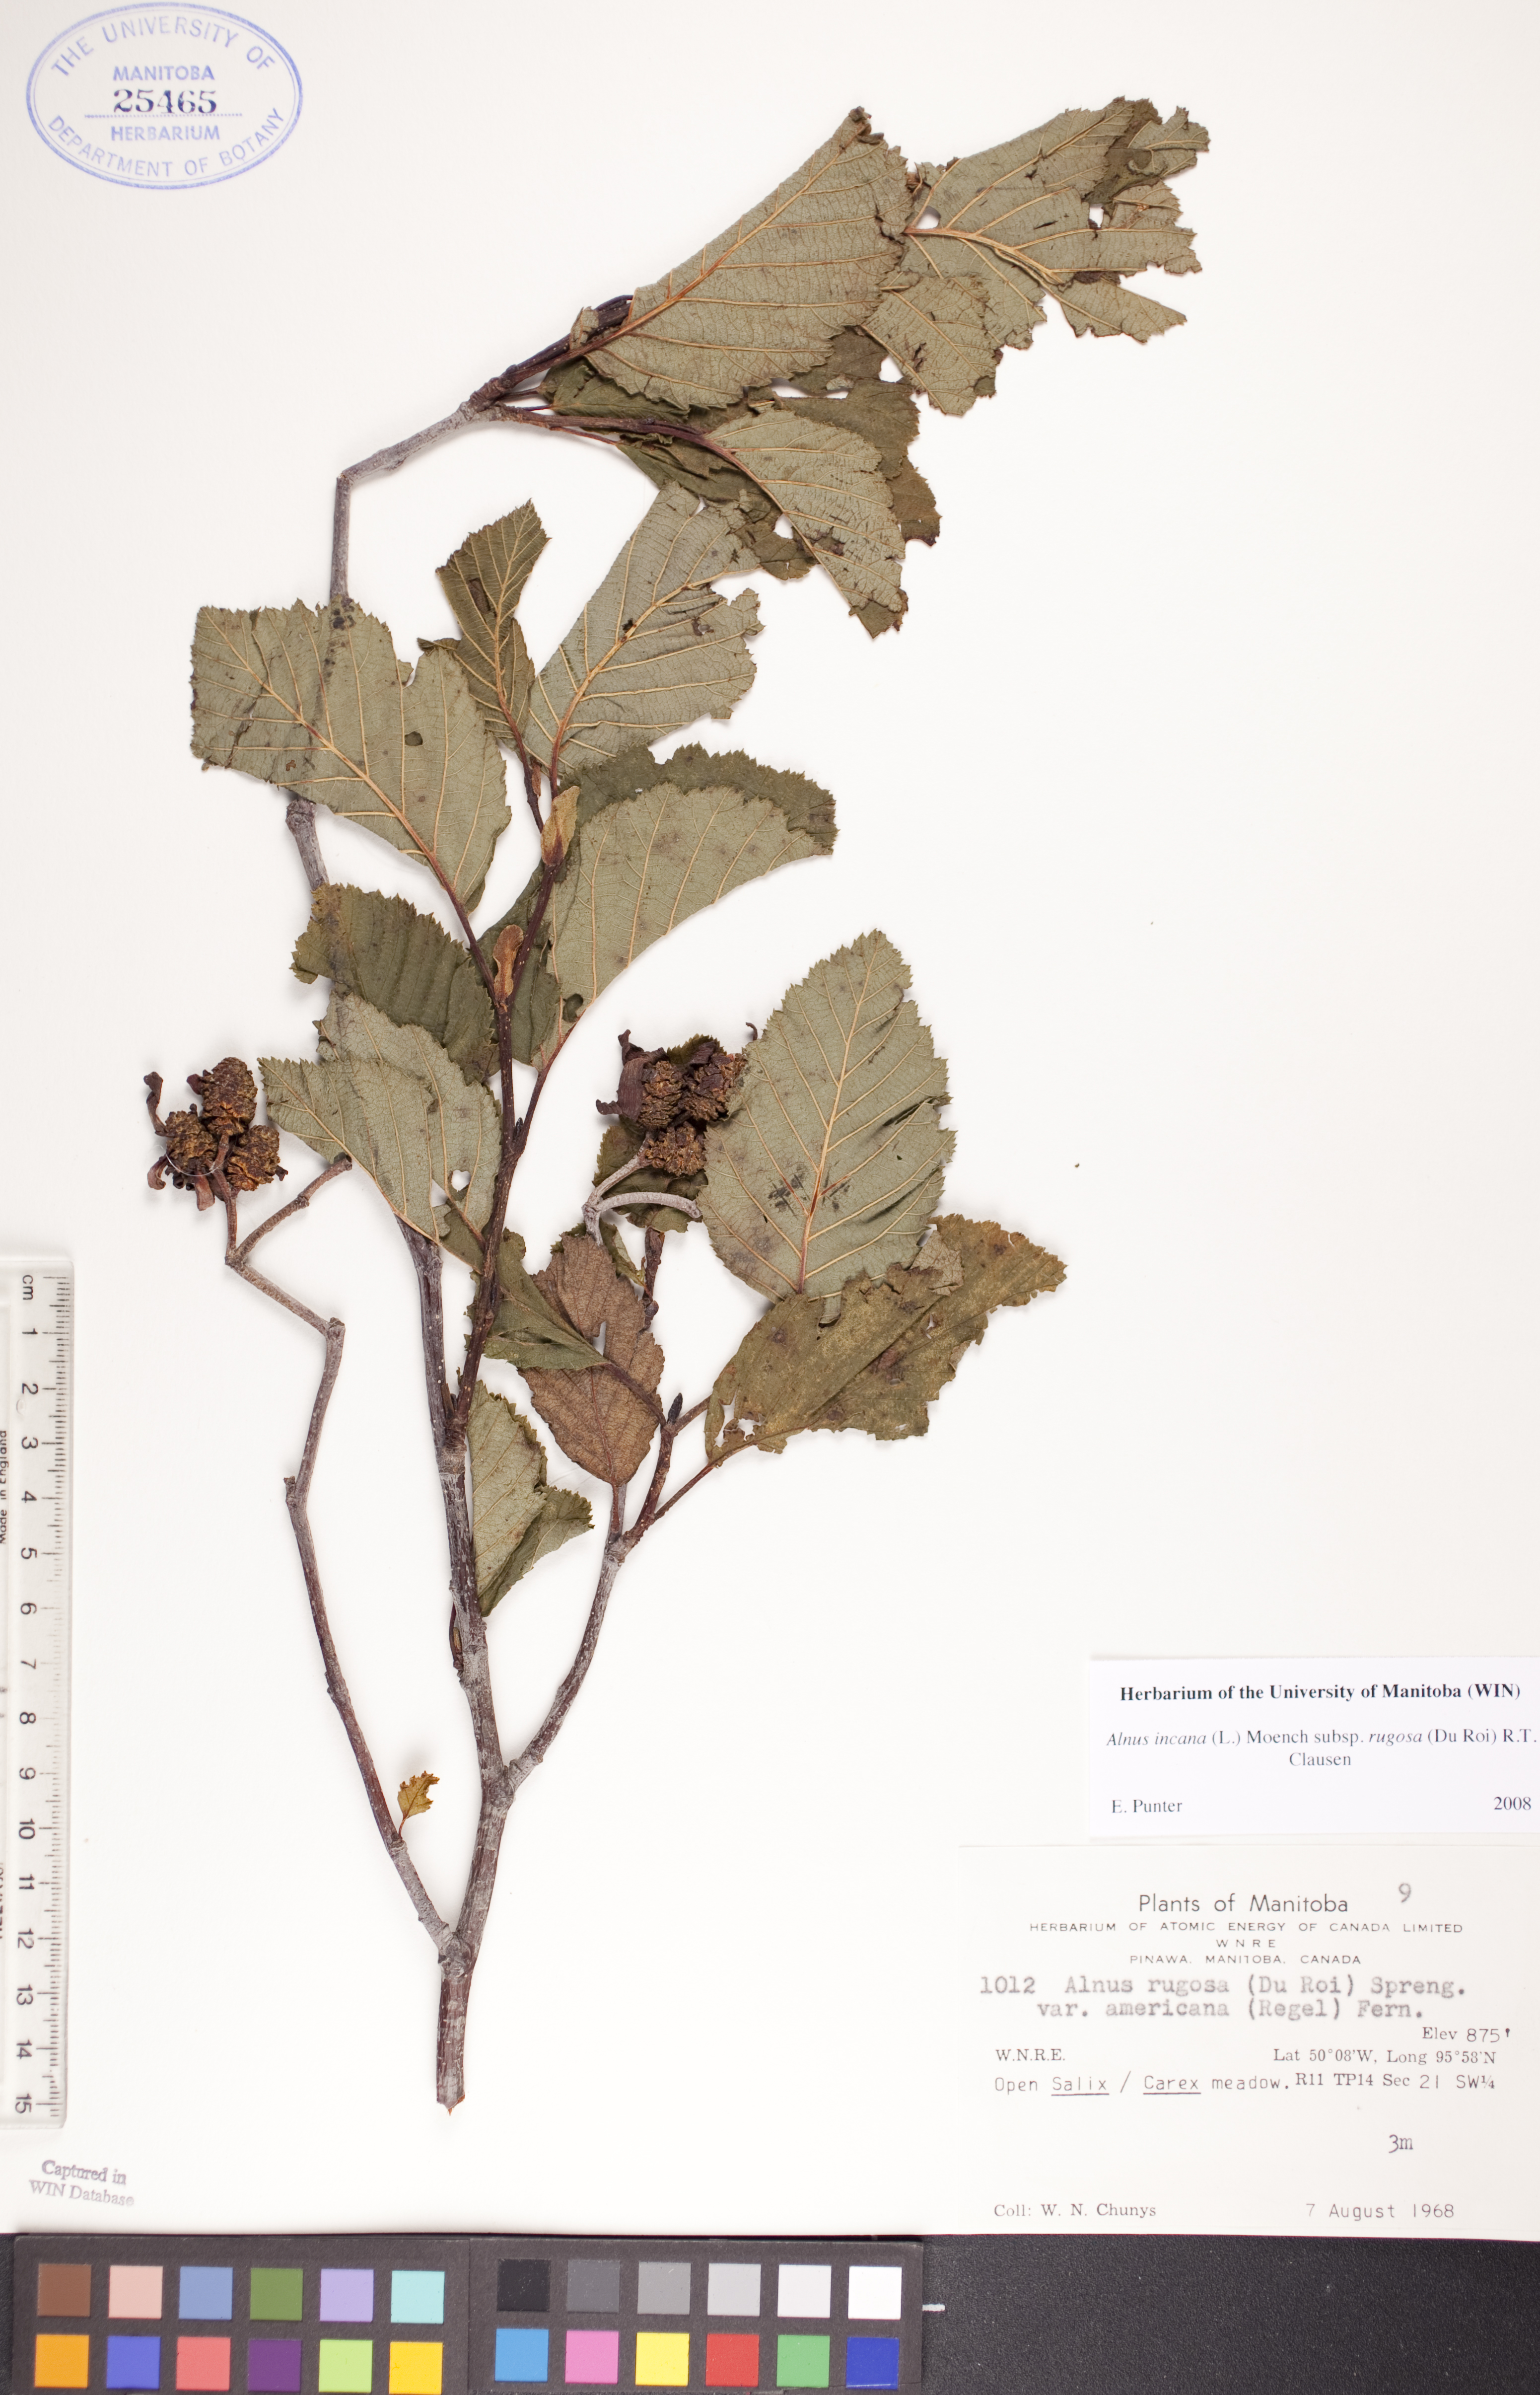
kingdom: Plantae
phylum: Tracheophyta
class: Magnoliopsida
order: Fagales
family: Betulaceae
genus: Alnus
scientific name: Alnus incana
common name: Grey alder
